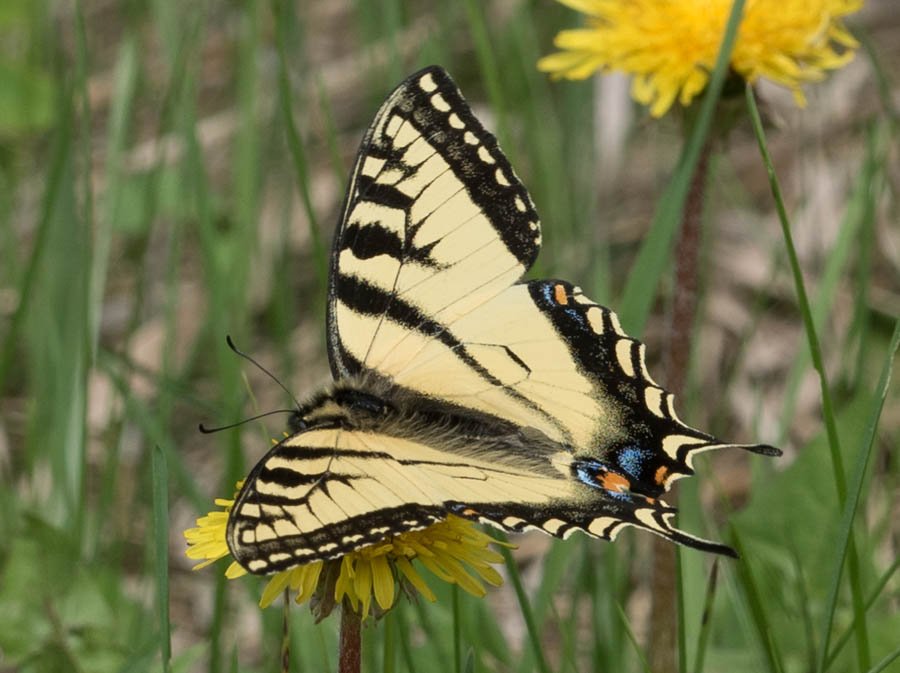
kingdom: Animalia
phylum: Arthropoda
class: Insecta
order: Lepidoptera
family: Papilionidae
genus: Pterourus
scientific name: Pterourus canadensis
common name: Canadian Tiger Swallowtail
